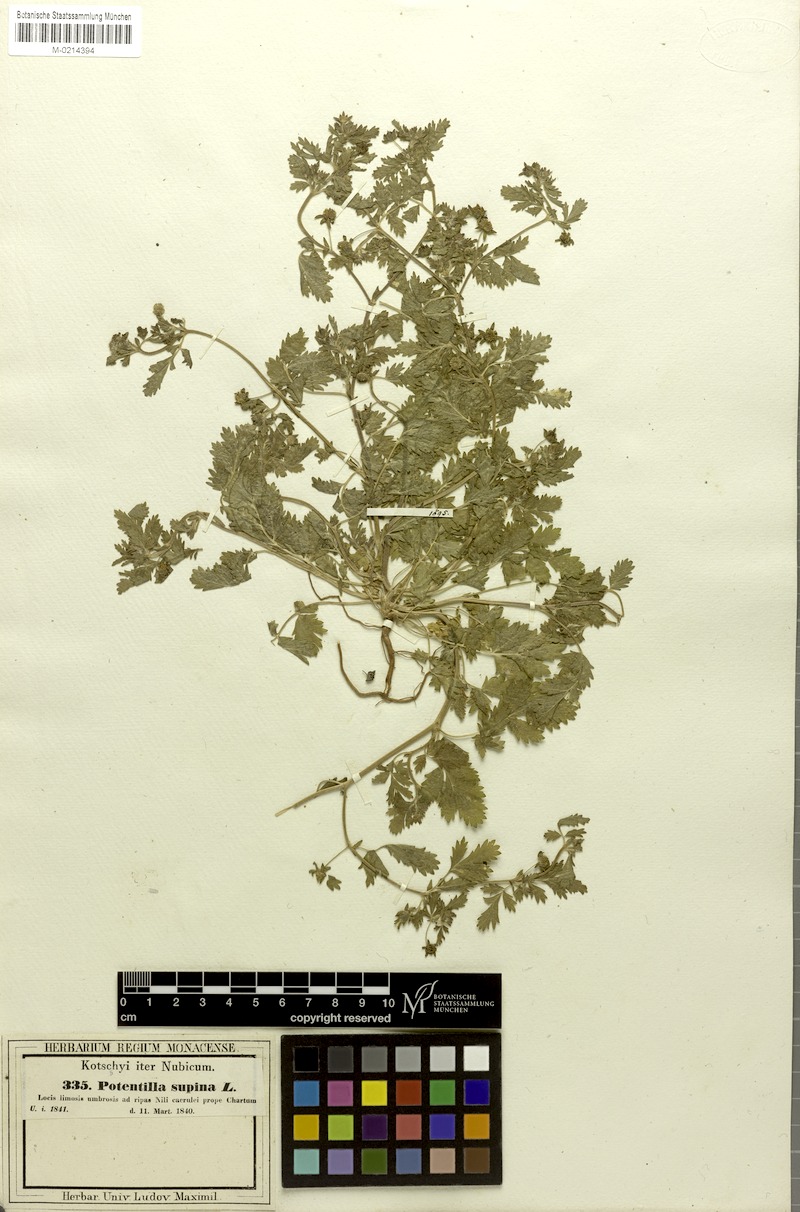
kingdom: Plantae
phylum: Tracheophyta
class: Magnoliopsida
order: Rosales
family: Rosaceae
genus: Potentilla
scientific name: Potentilla supina
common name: Prostrate cinquefoil
